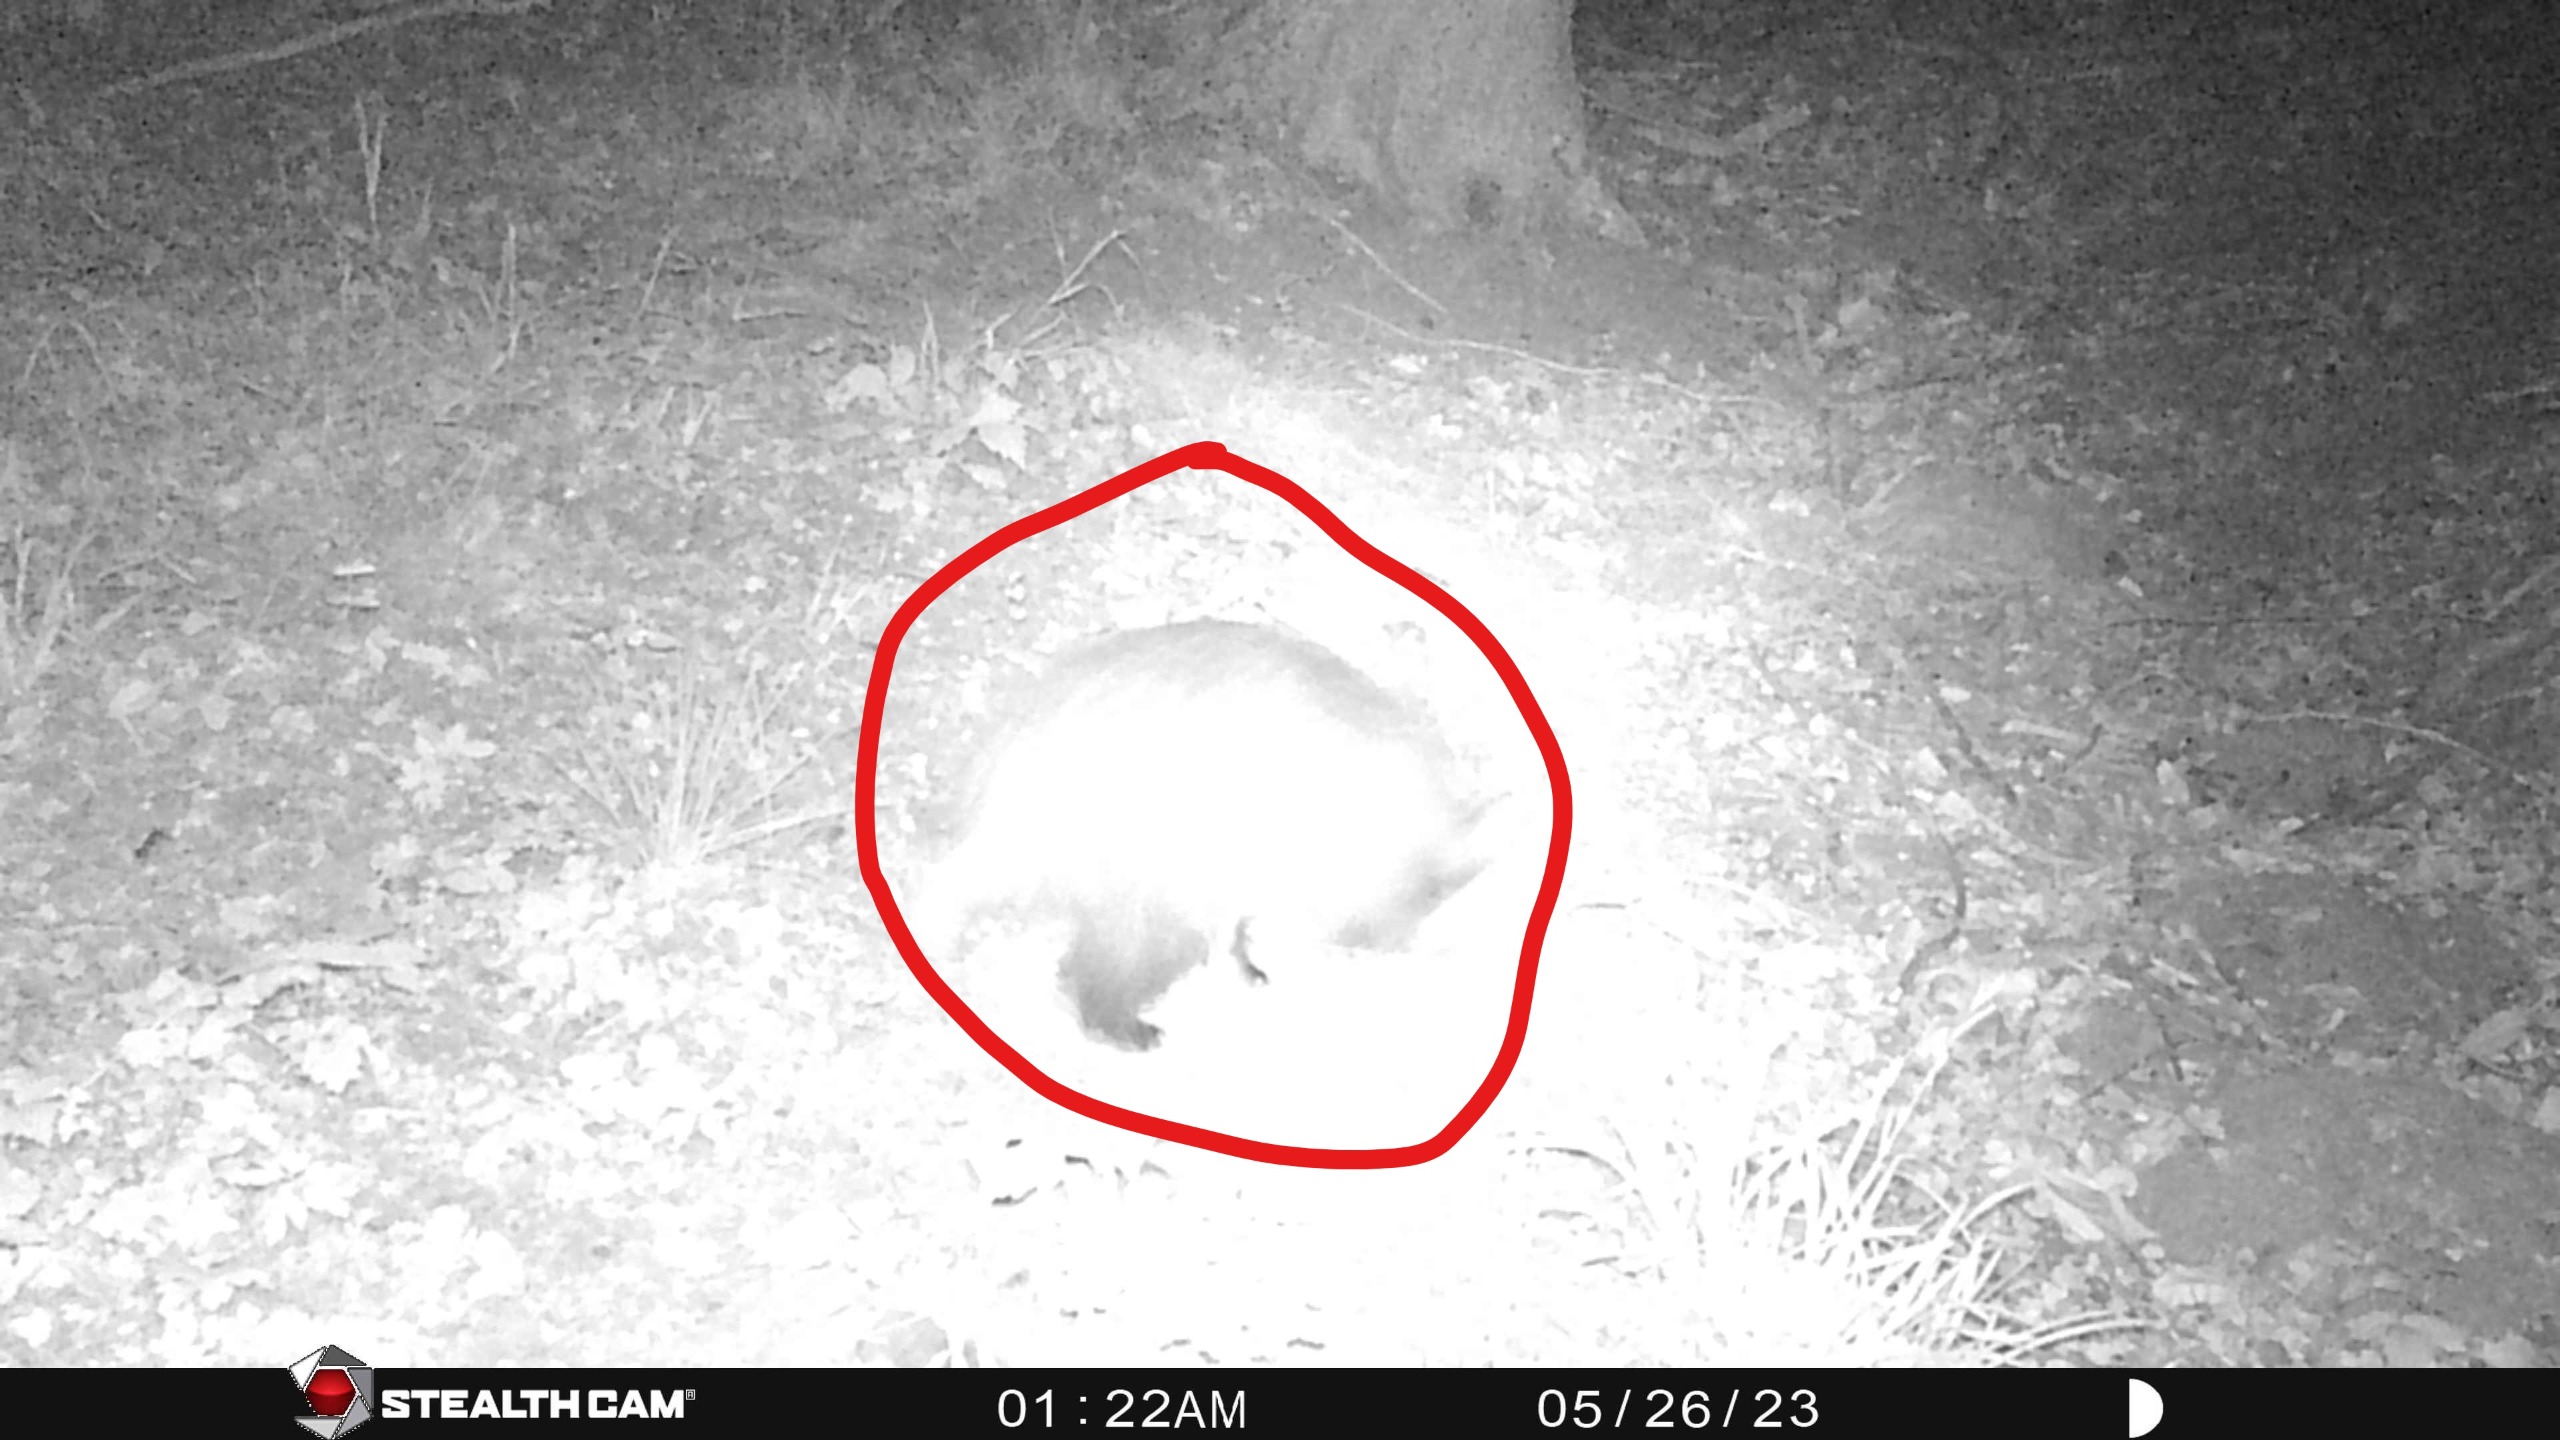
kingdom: Animalia
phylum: Chordata
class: Mammalia
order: Carnivora
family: Mustelidae
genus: Meles
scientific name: Meles meles
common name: Grævling
